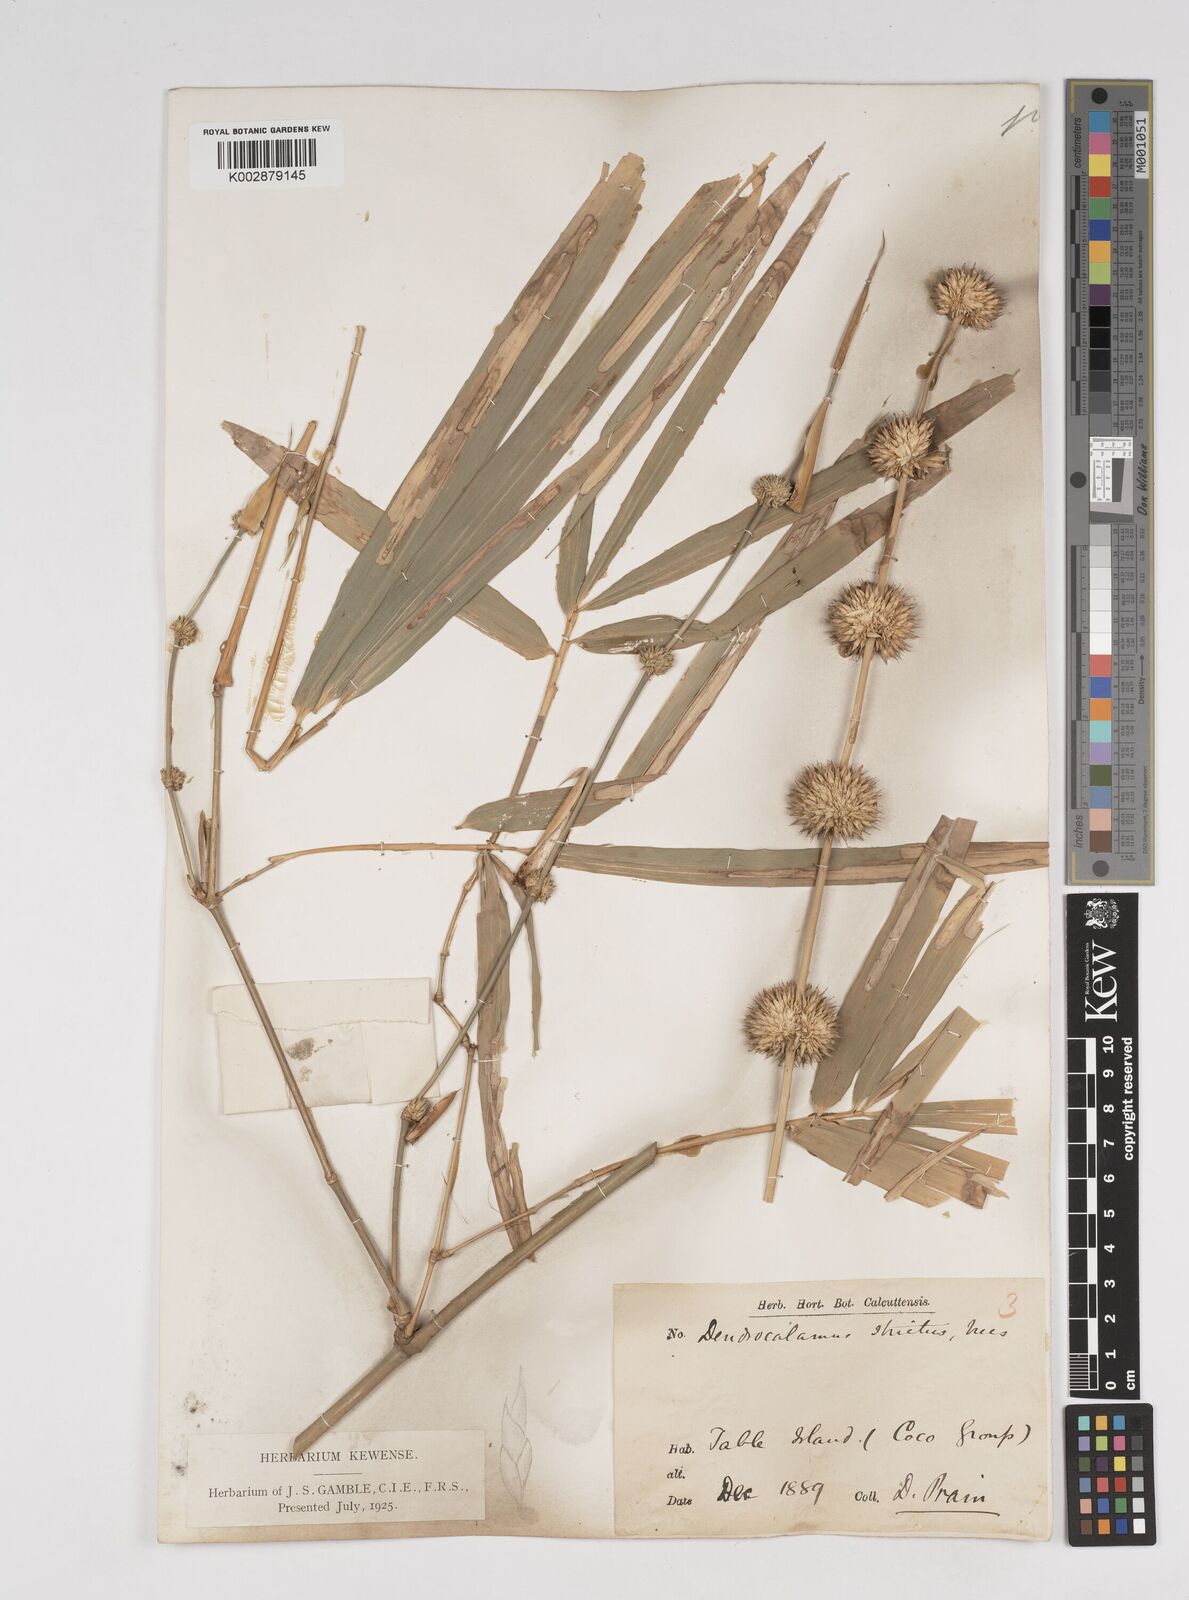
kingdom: Plantae
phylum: Tracheophyta
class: Liliopsida
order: Poales
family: Poaceae
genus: Dendrocalamus
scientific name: Dendrocalamus strictus
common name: Male bamboo
